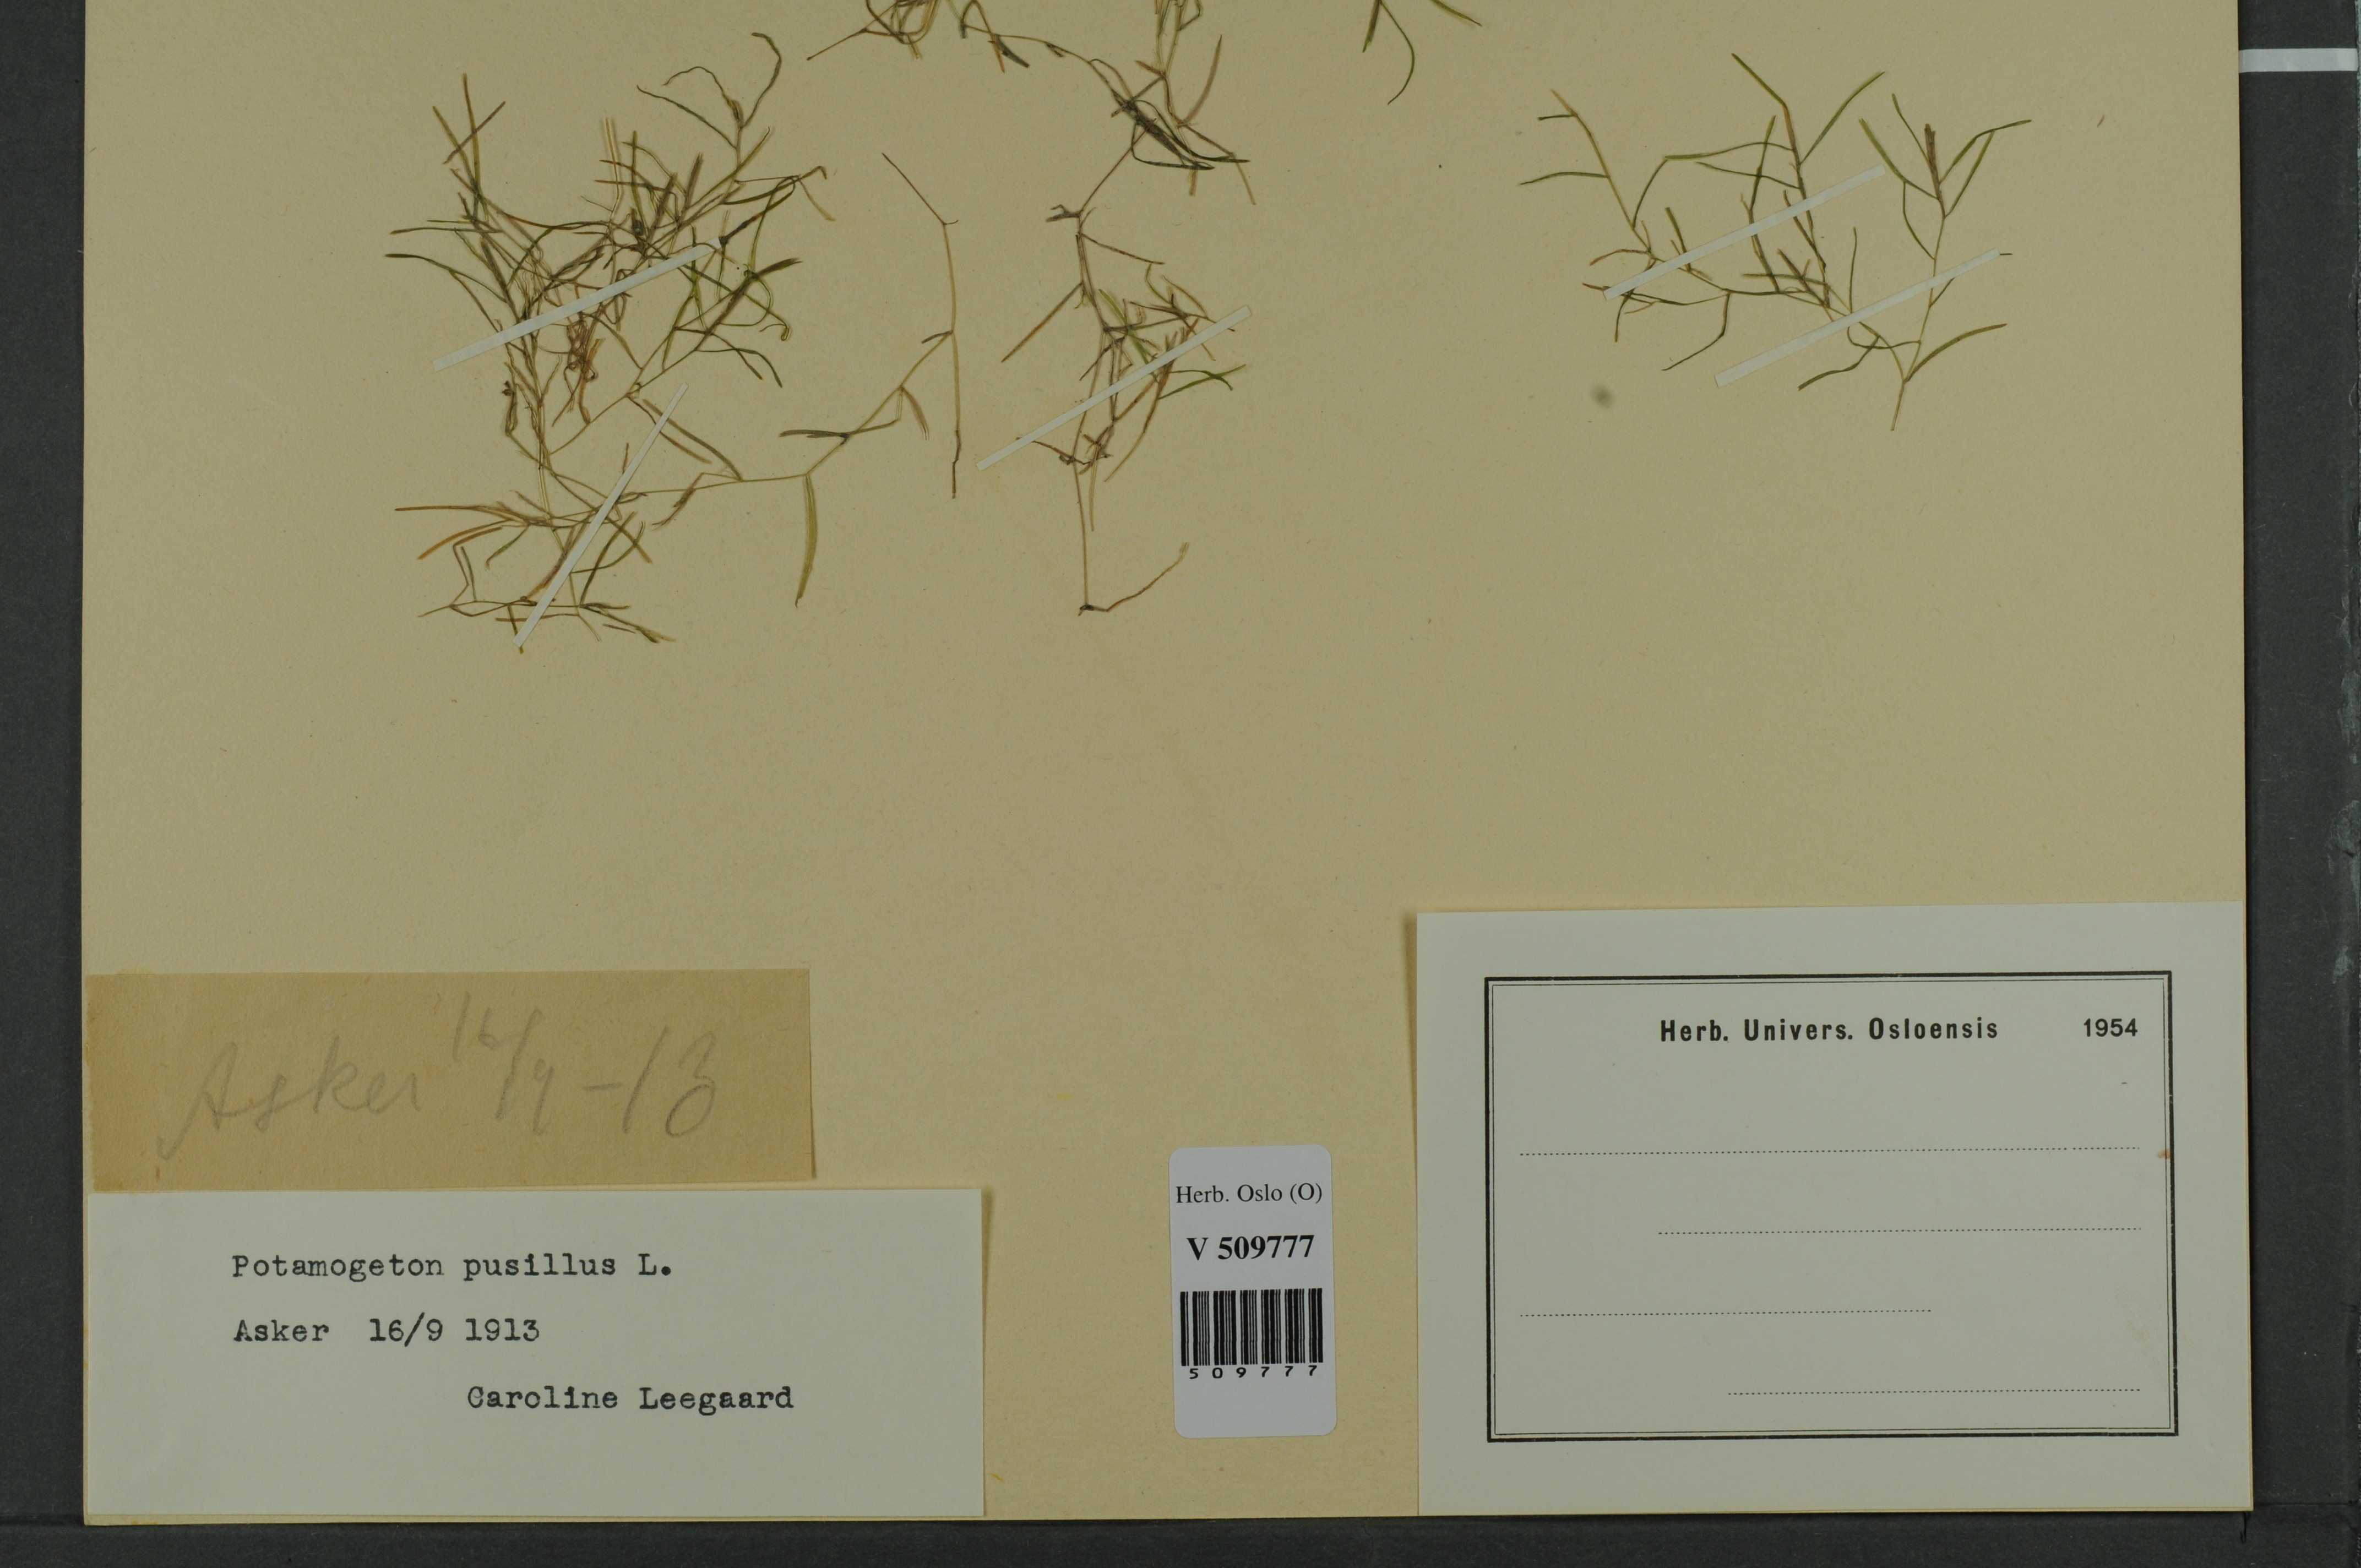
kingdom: Plantae
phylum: Tracheophyta
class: Liliopsida
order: Alismatales
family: Potamogetonaceae
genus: Potamogeton
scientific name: Potamogeton berchtoldii
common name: Small pondweed
